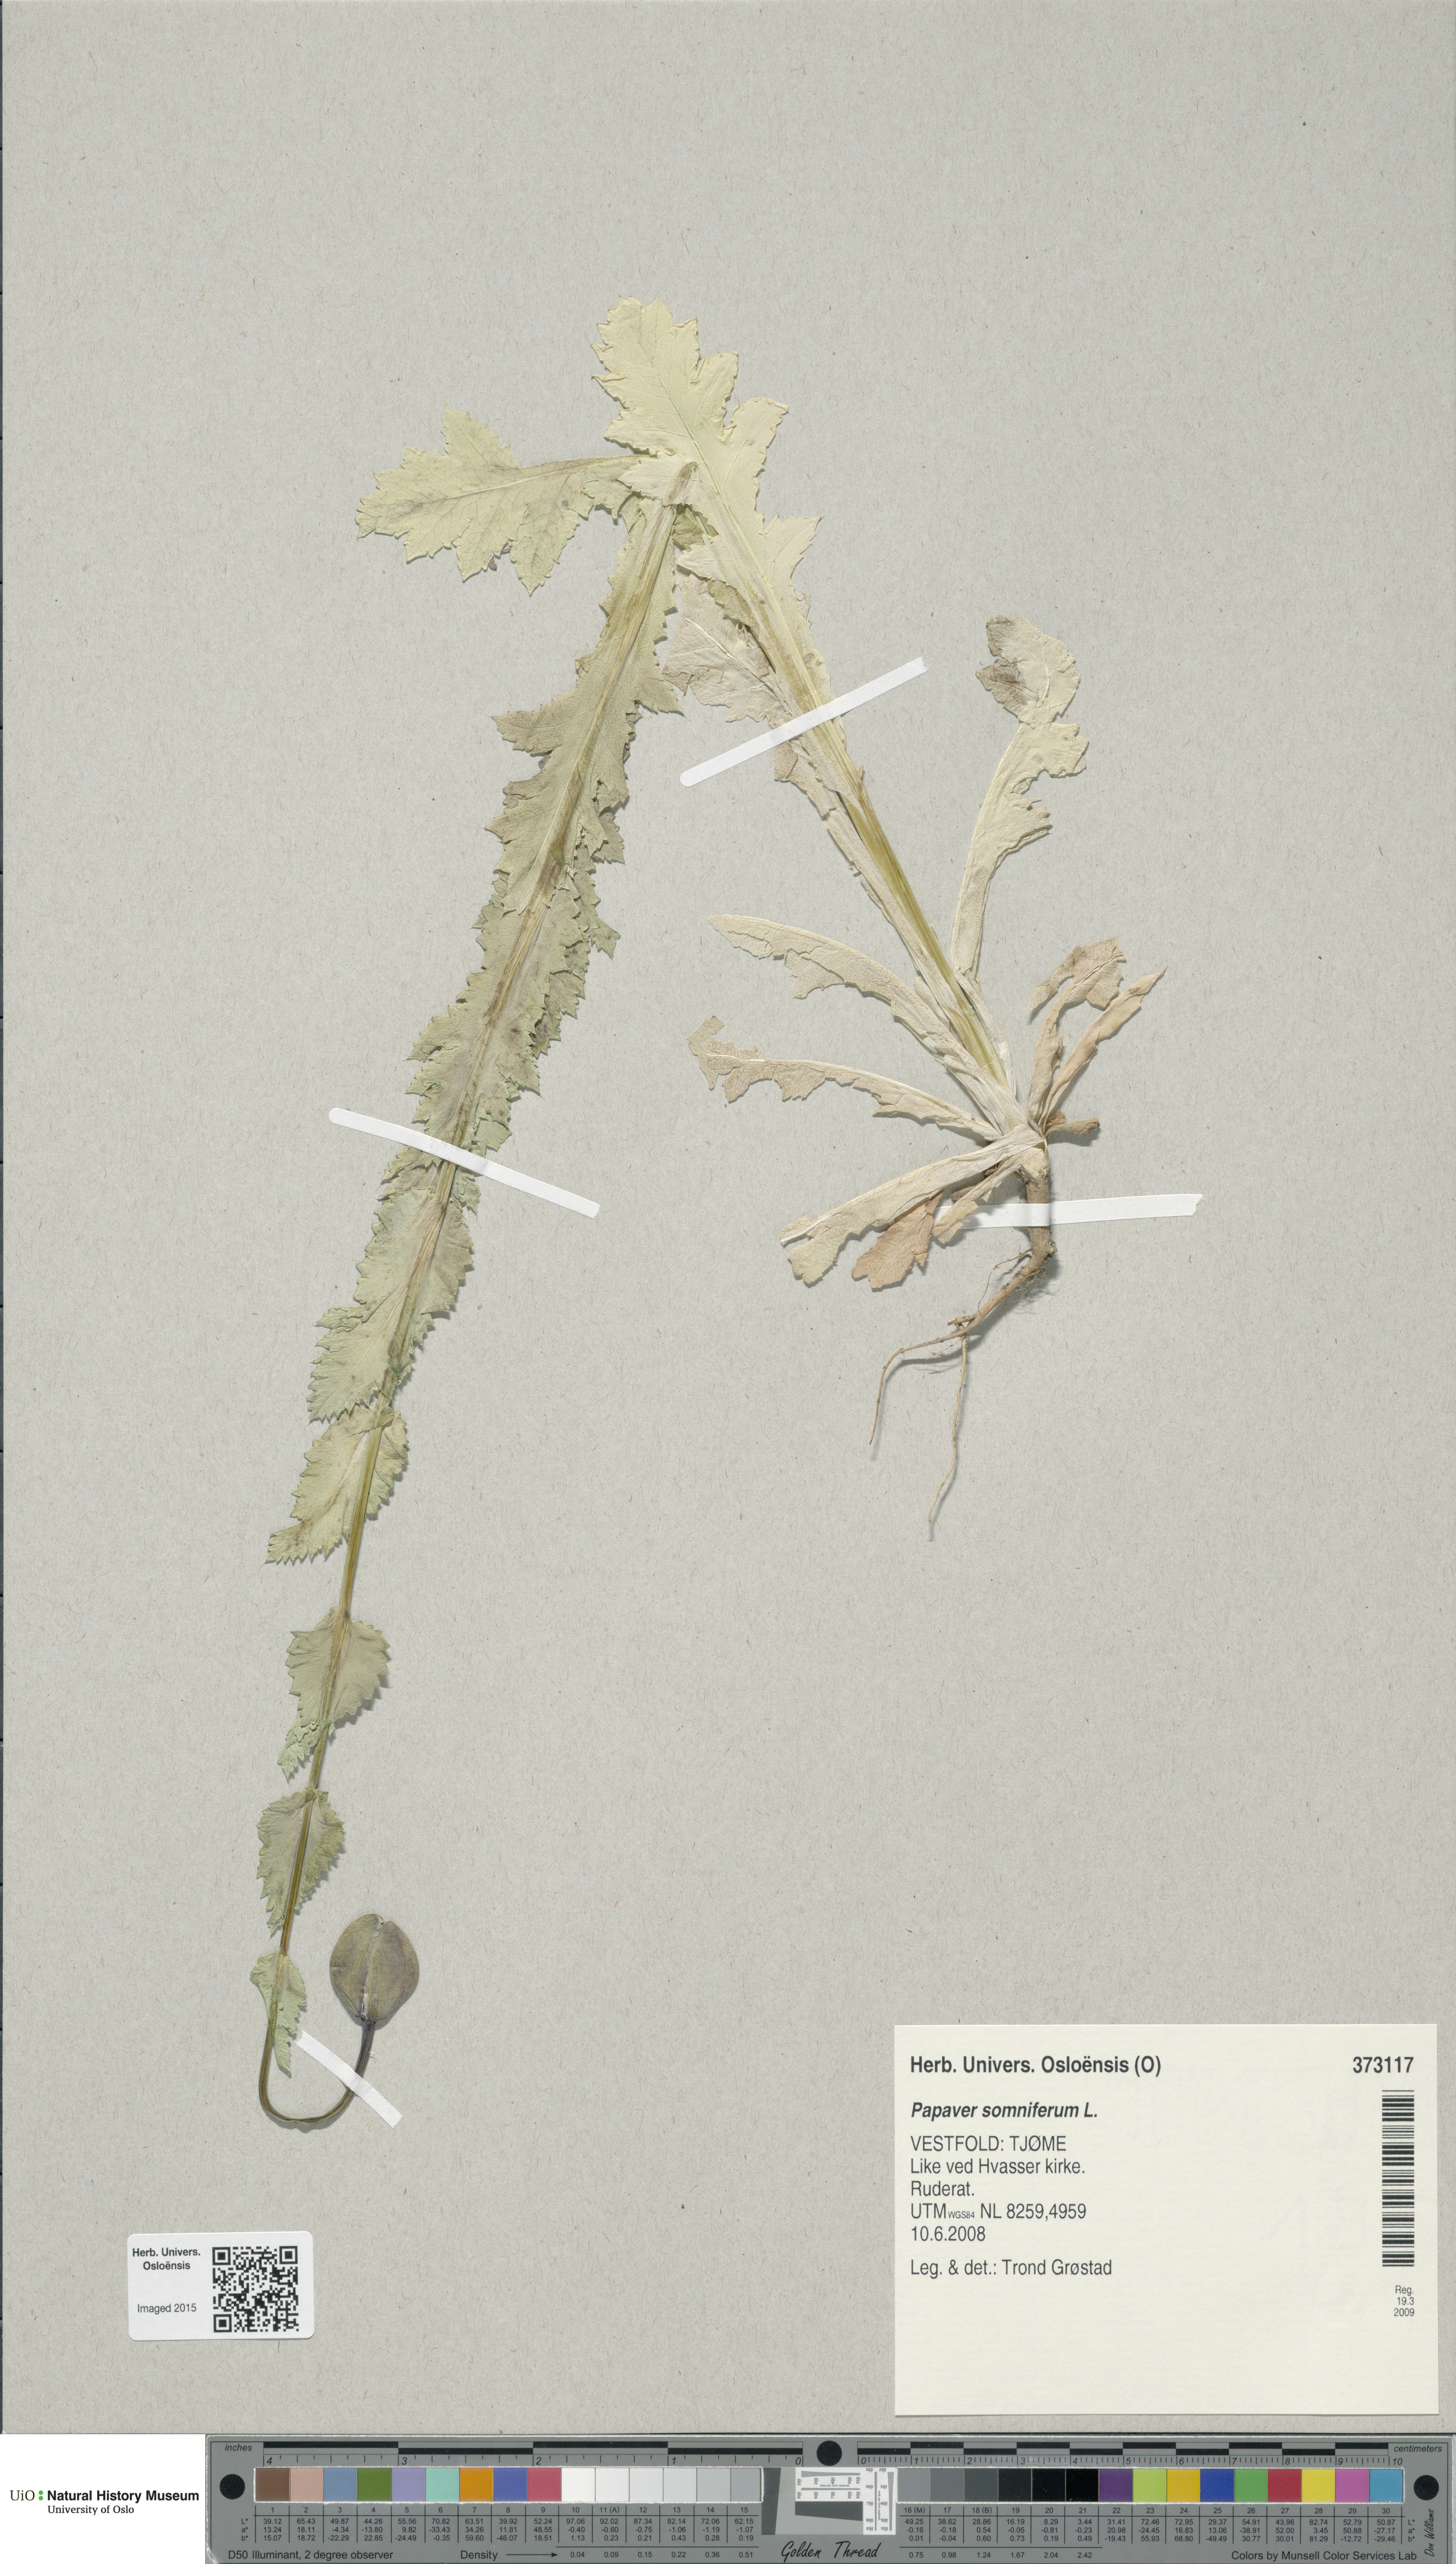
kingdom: Plantae
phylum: Tracheophyta
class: Magnoliopsida
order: Ranunculales
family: Papaveraceae
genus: Papaver
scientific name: Papaver somniferum
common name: Opium poppy
